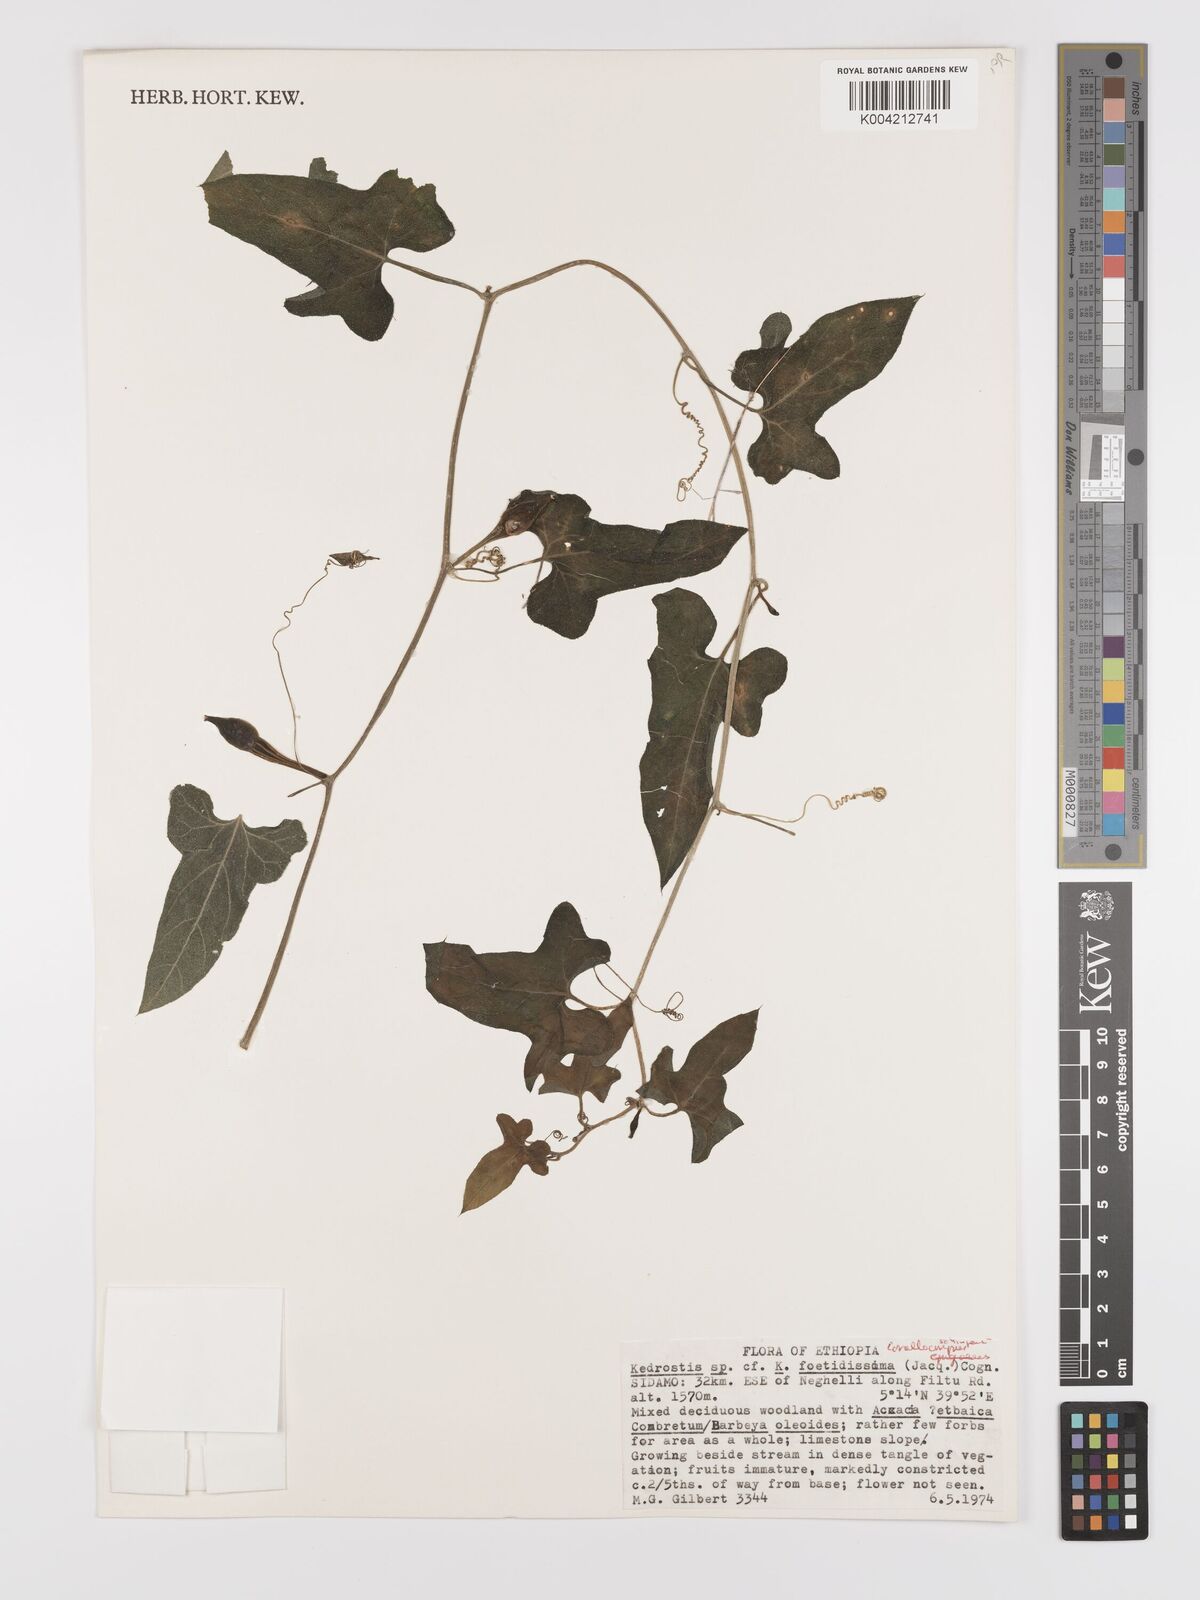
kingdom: Plantae
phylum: Tracheophyta
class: Magnoliopsida
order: Cucurbitales
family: Cucurbitaceae
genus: Corallocarpus
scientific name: Corallocarpus schimperi
